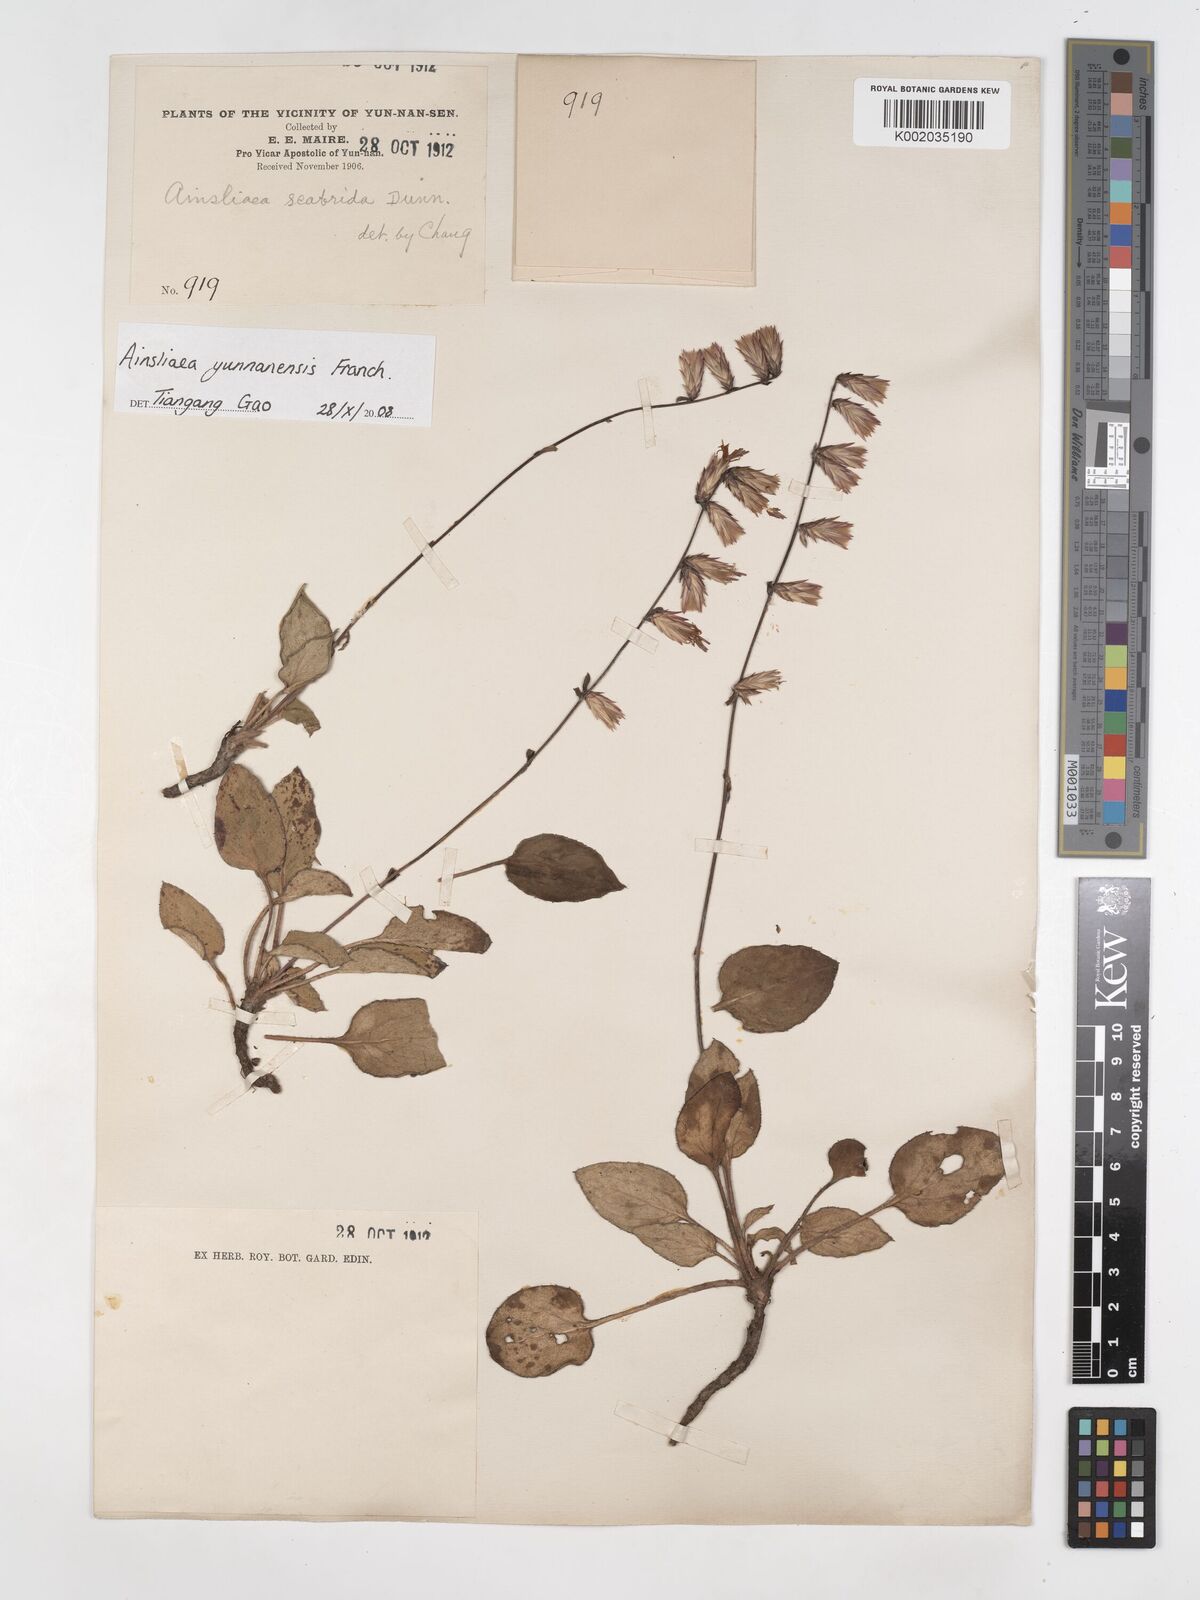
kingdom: Plantae
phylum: Tracheophyta
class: Magnoliopsida
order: Asterales
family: Asteraceae
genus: Ainsliaea
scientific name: Ainsliaea yunnanensis
